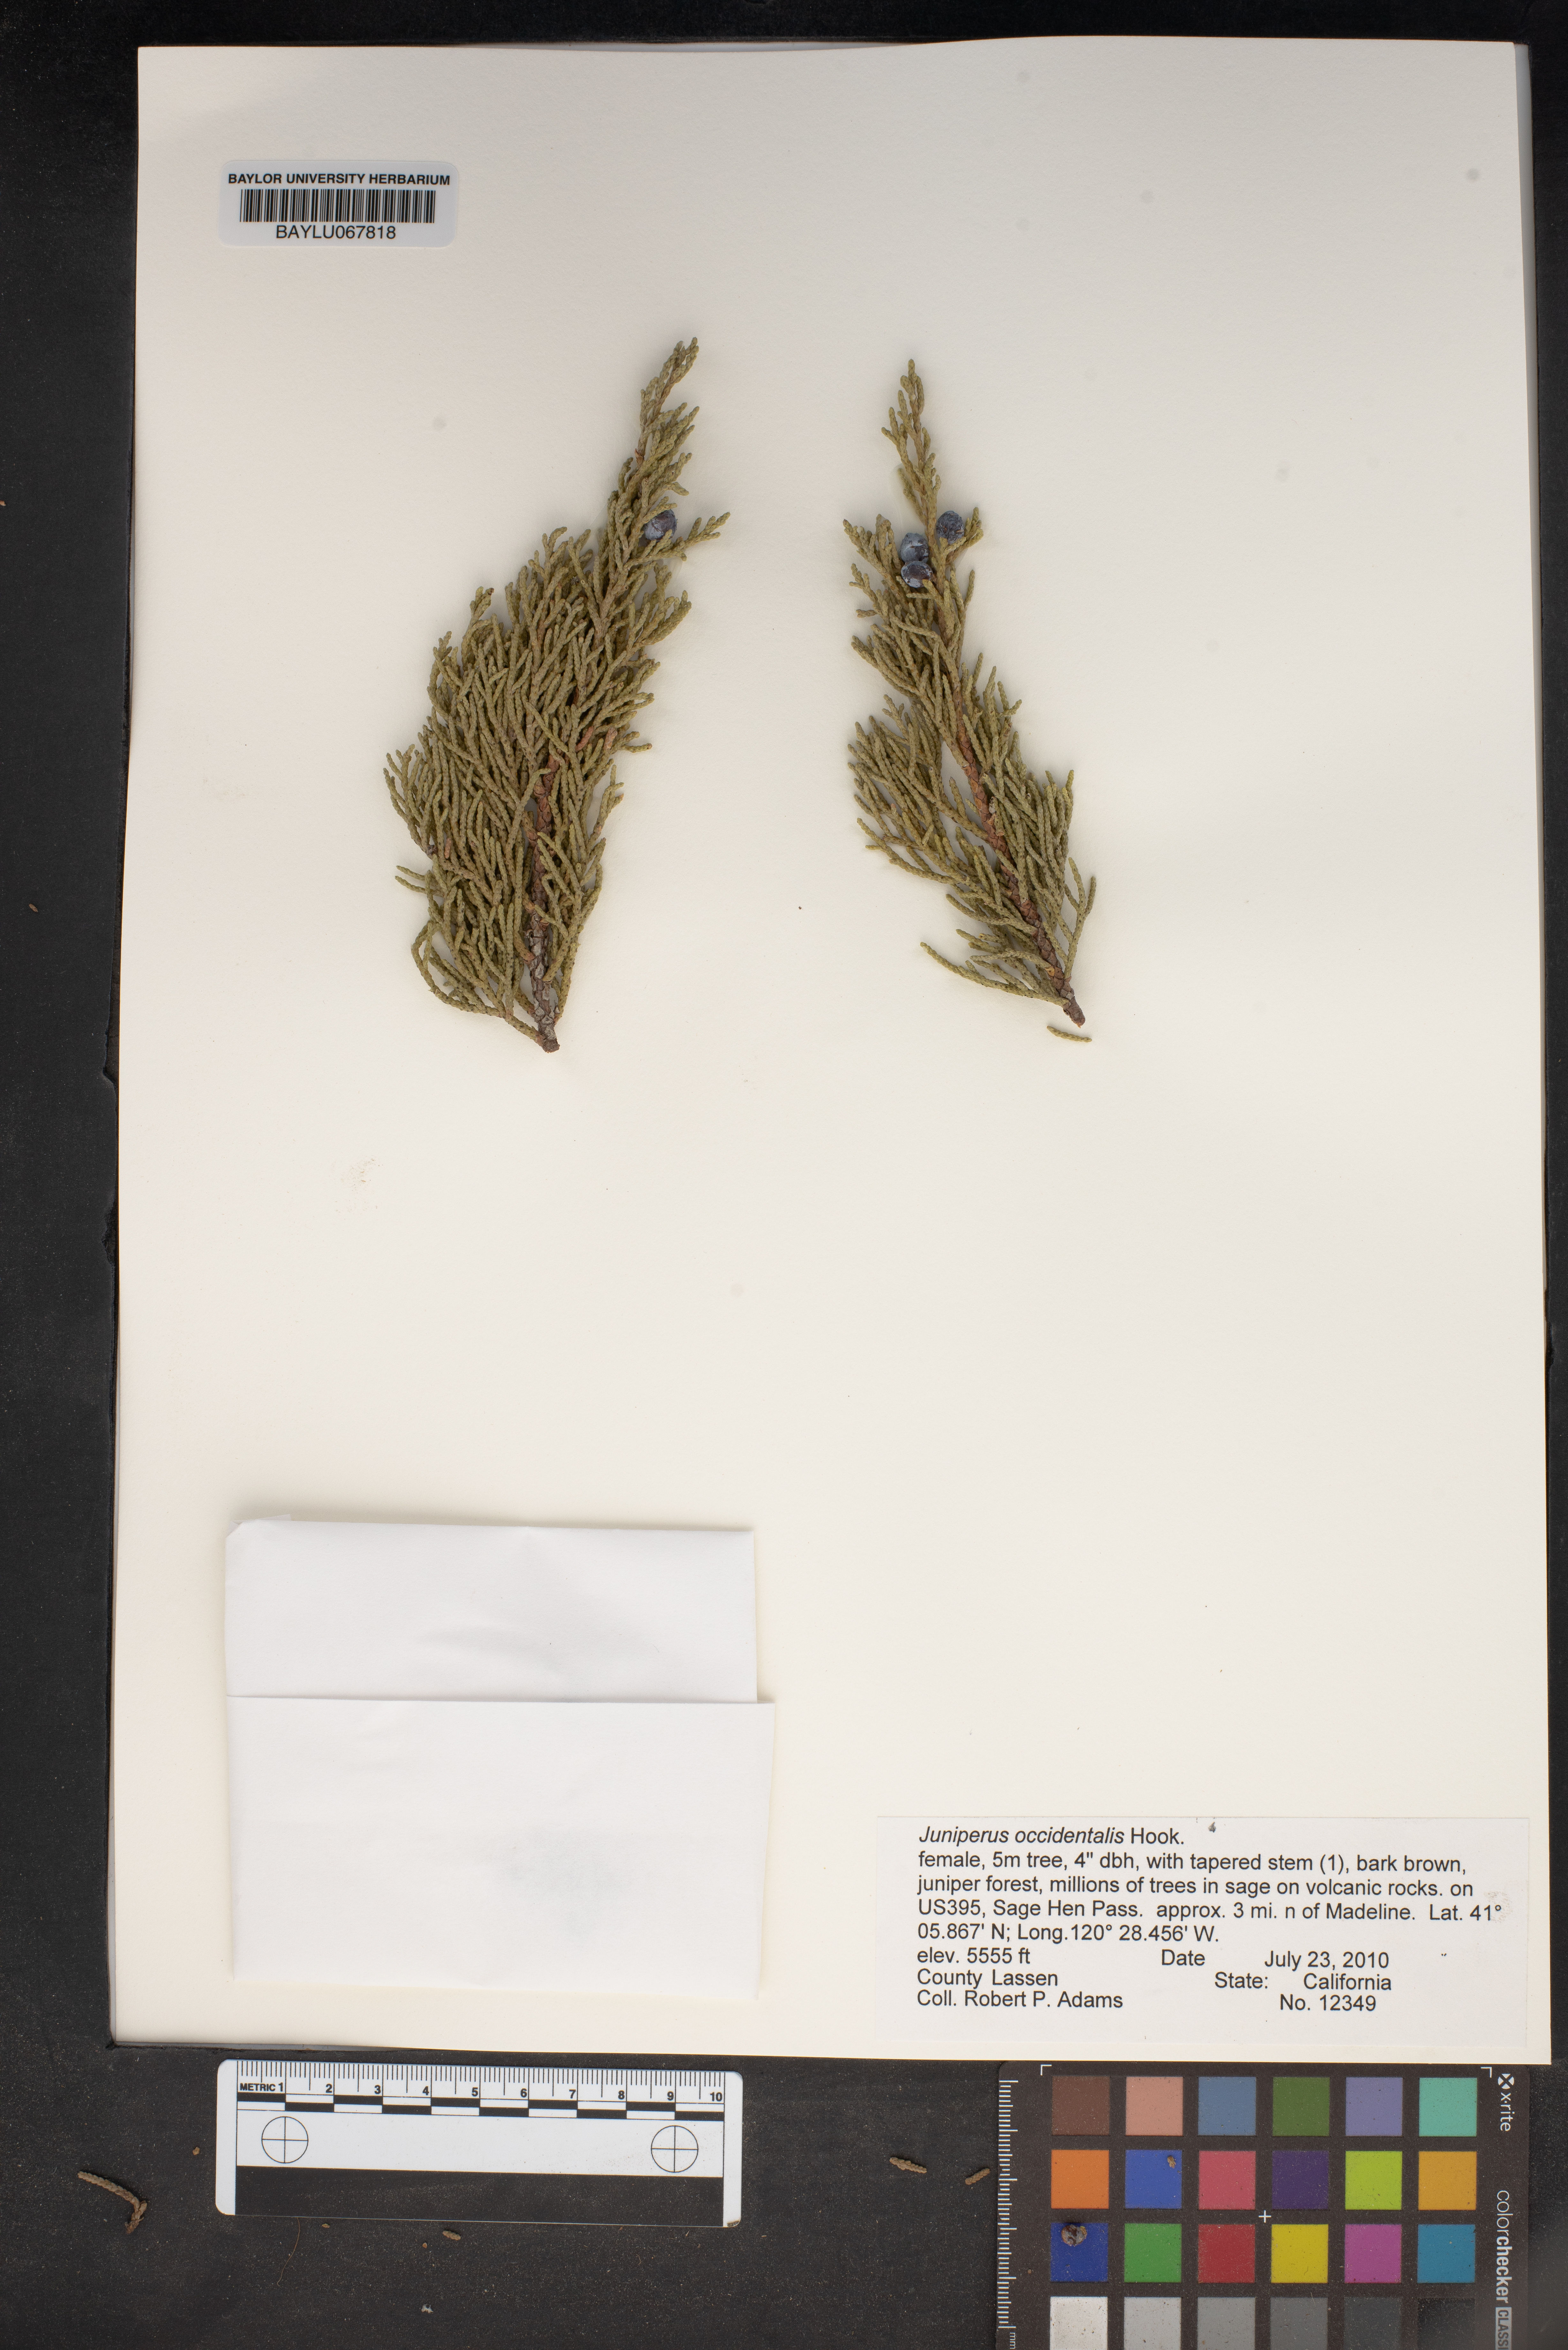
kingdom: Plantae
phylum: Tracheophyta
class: Pinopsida
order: Pinales
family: Cupressaceae
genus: Juniperus
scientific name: Juniperus occidentalis
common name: Western juniper
